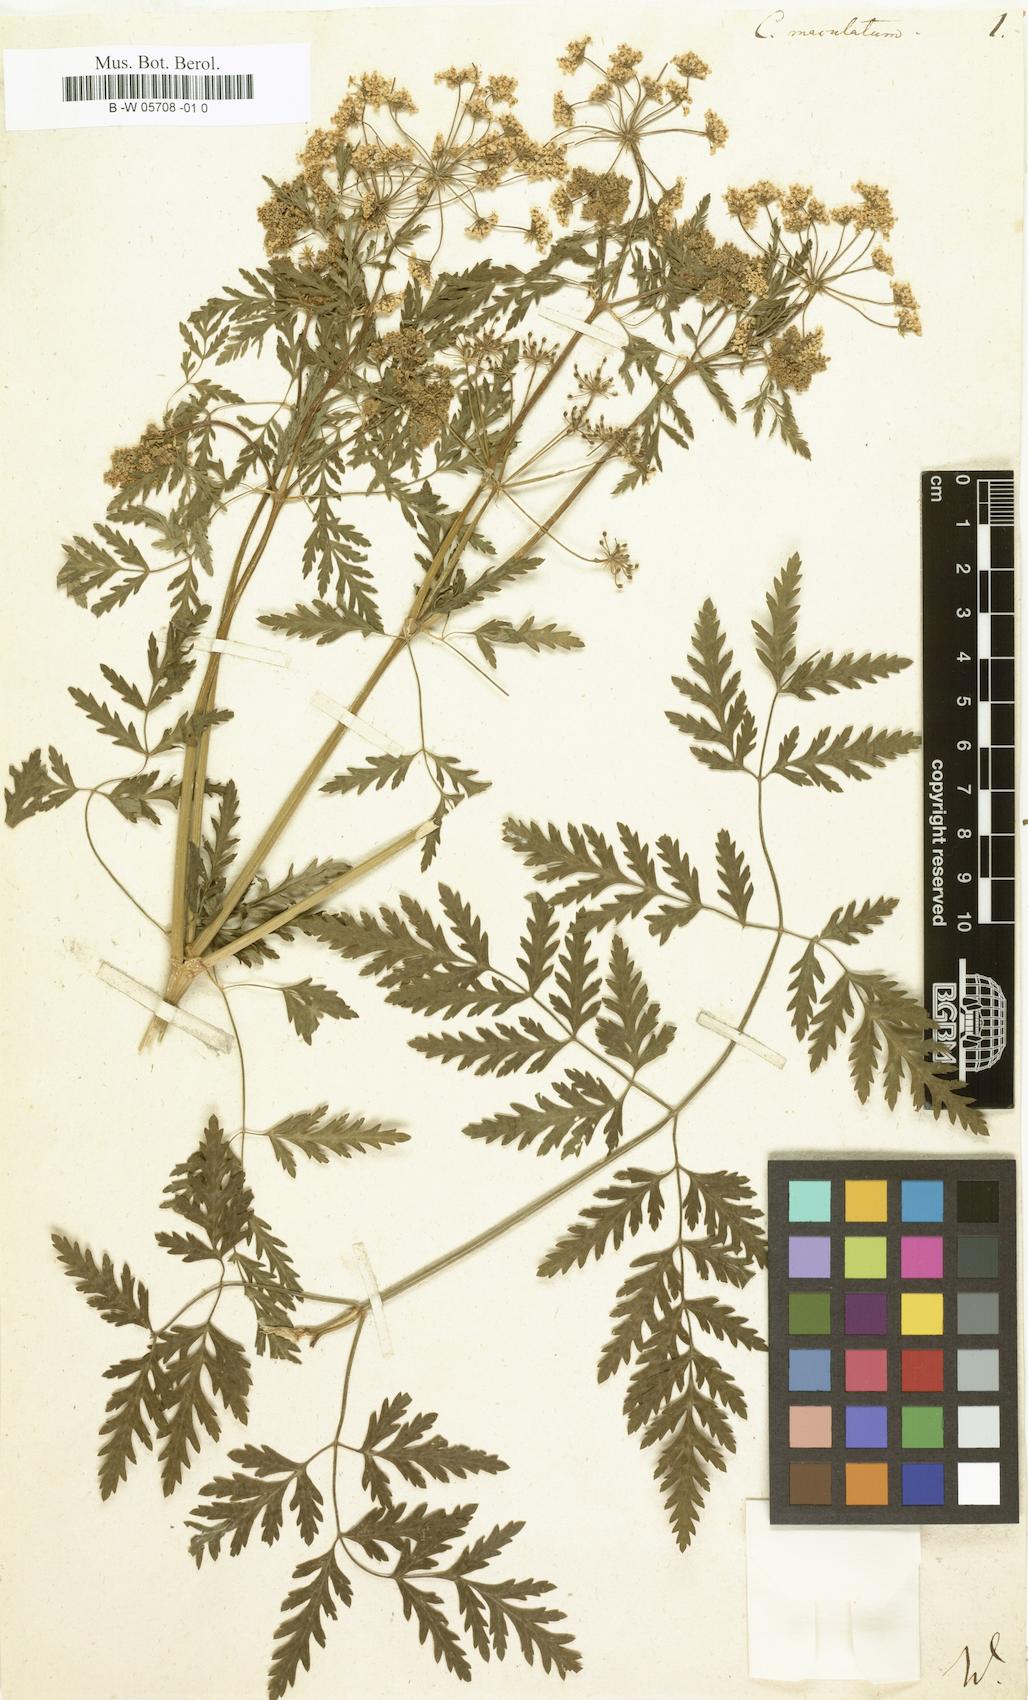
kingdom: Plantae
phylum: Tracheophyta
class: Magnoliopsida
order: Apiales
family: Apiaceae
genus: Conium
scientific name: Conium maculatum
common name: Hemlock
